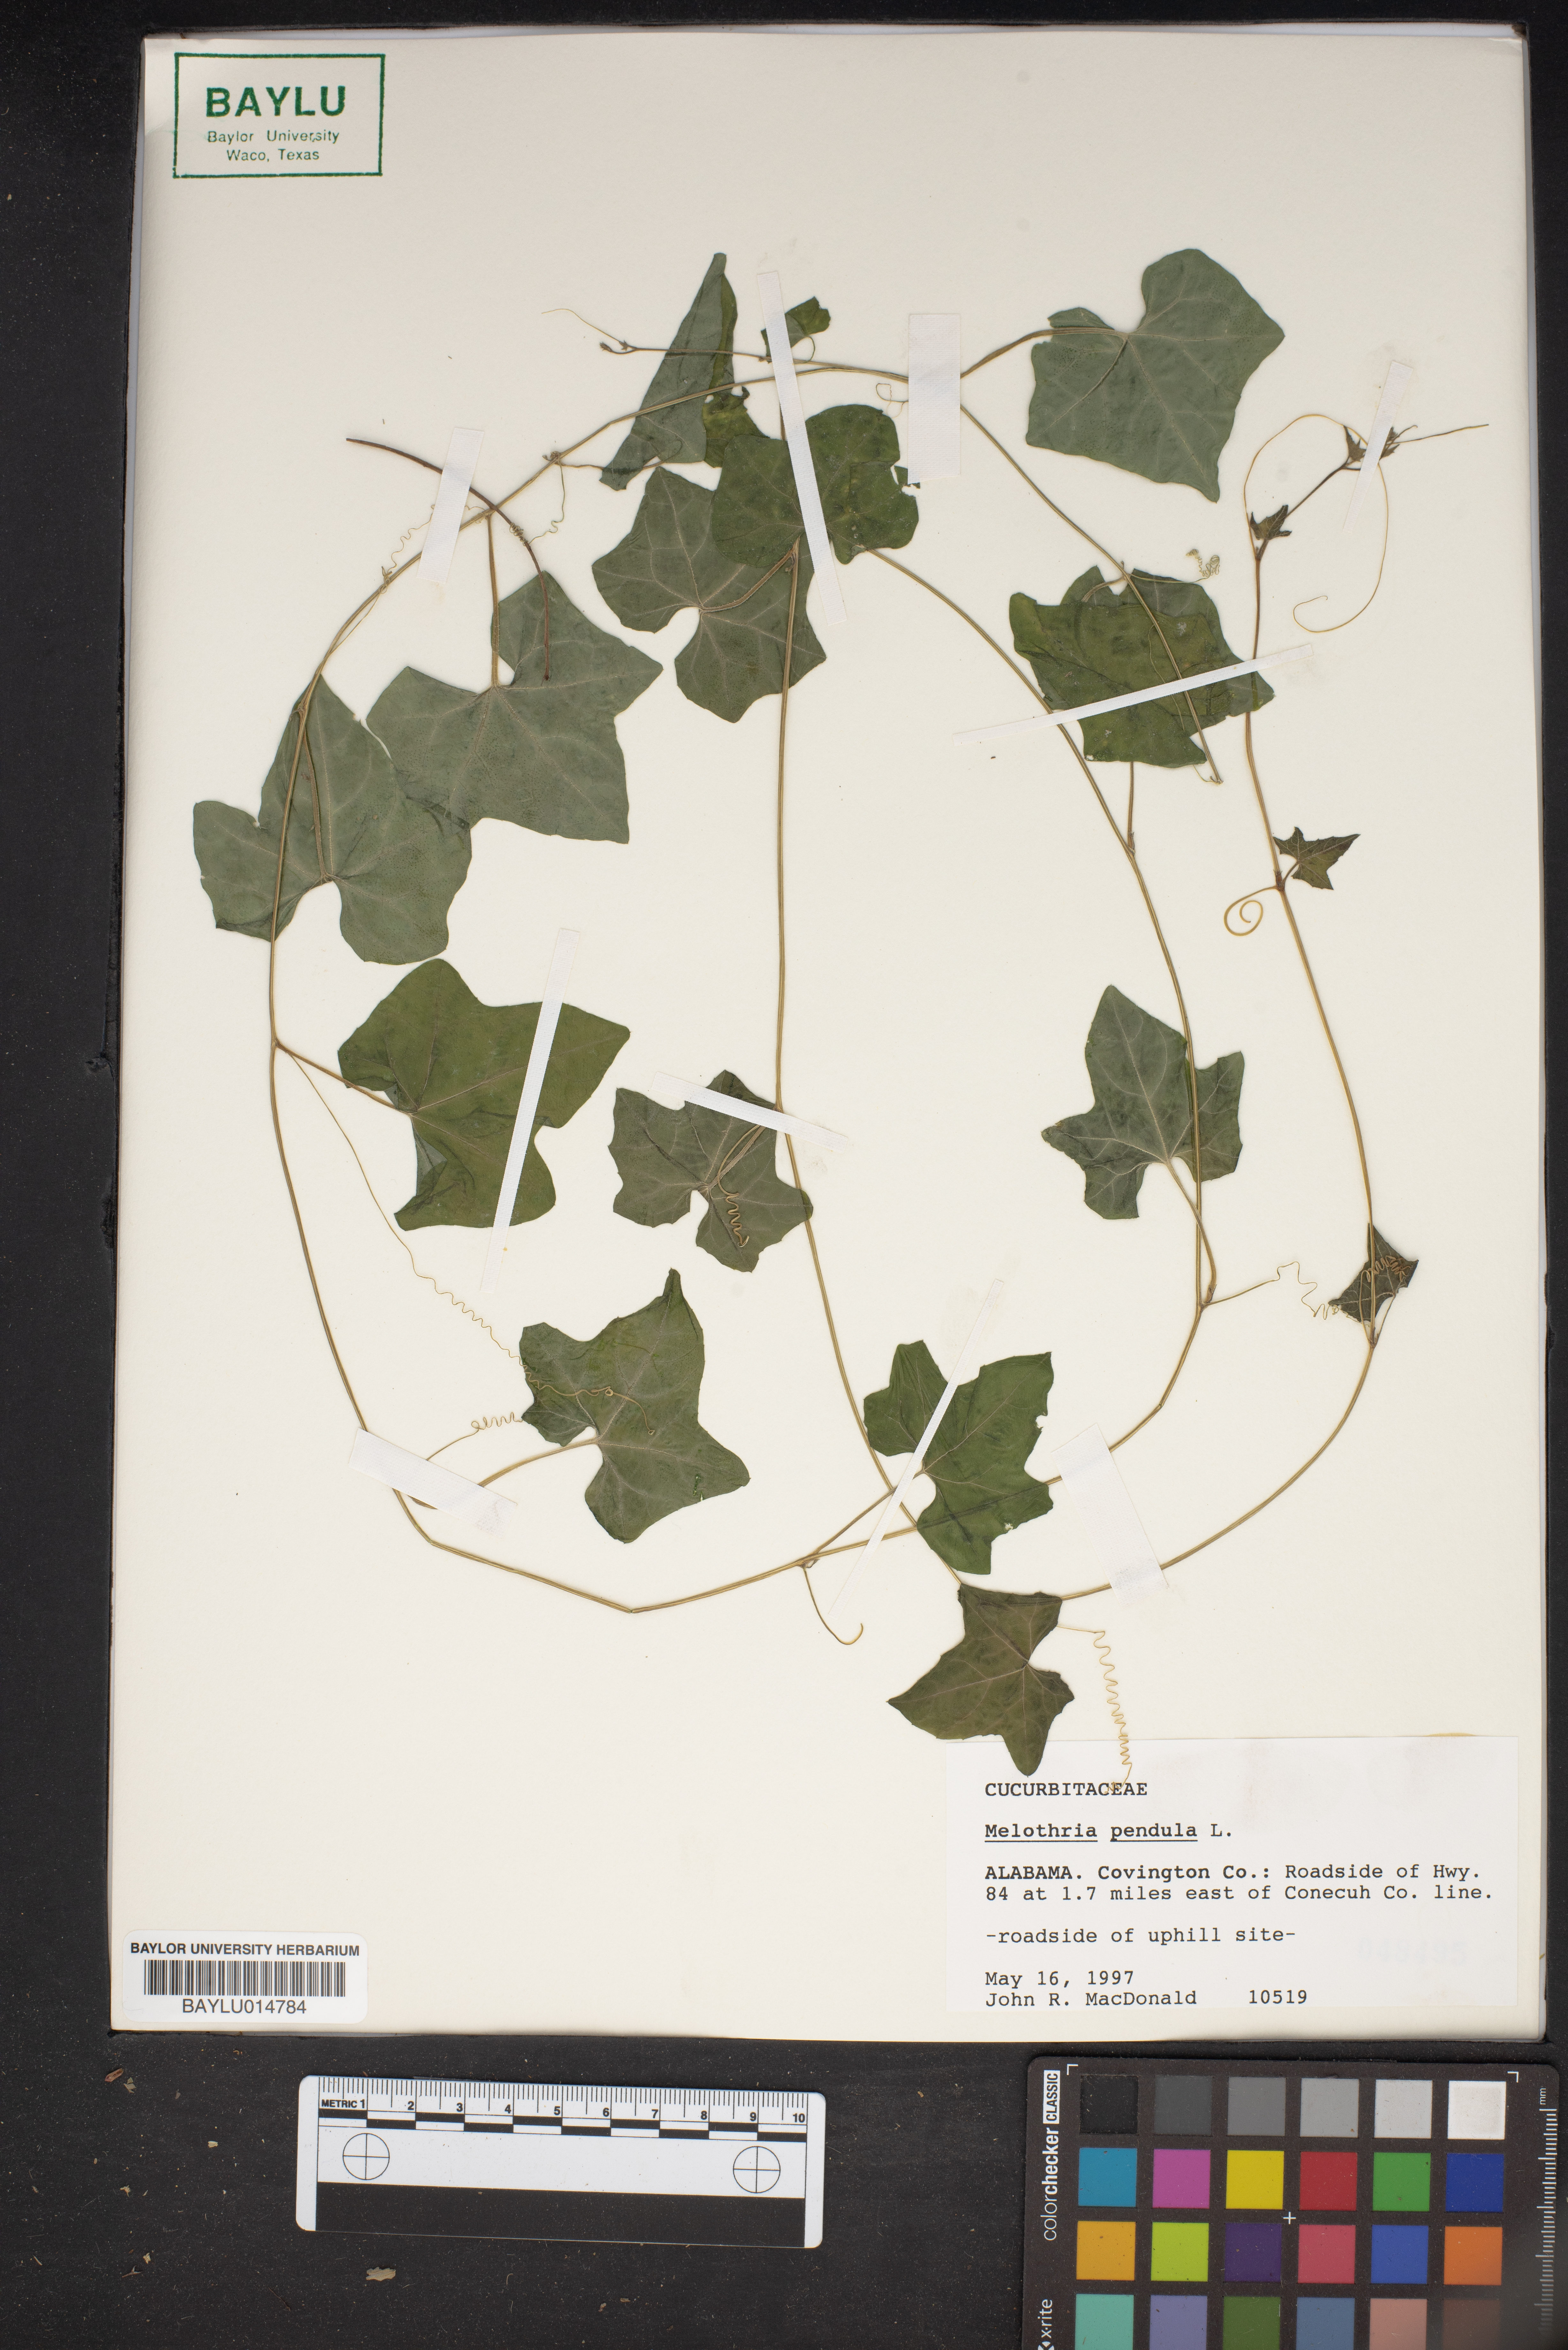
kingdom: Plantae
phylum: Tracheophyta
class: Magnoliopsida
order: Cucurbitales
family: Cucurbitaceae
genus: Melothria
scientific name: Melothria pendula
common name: Creeping-cucumber
